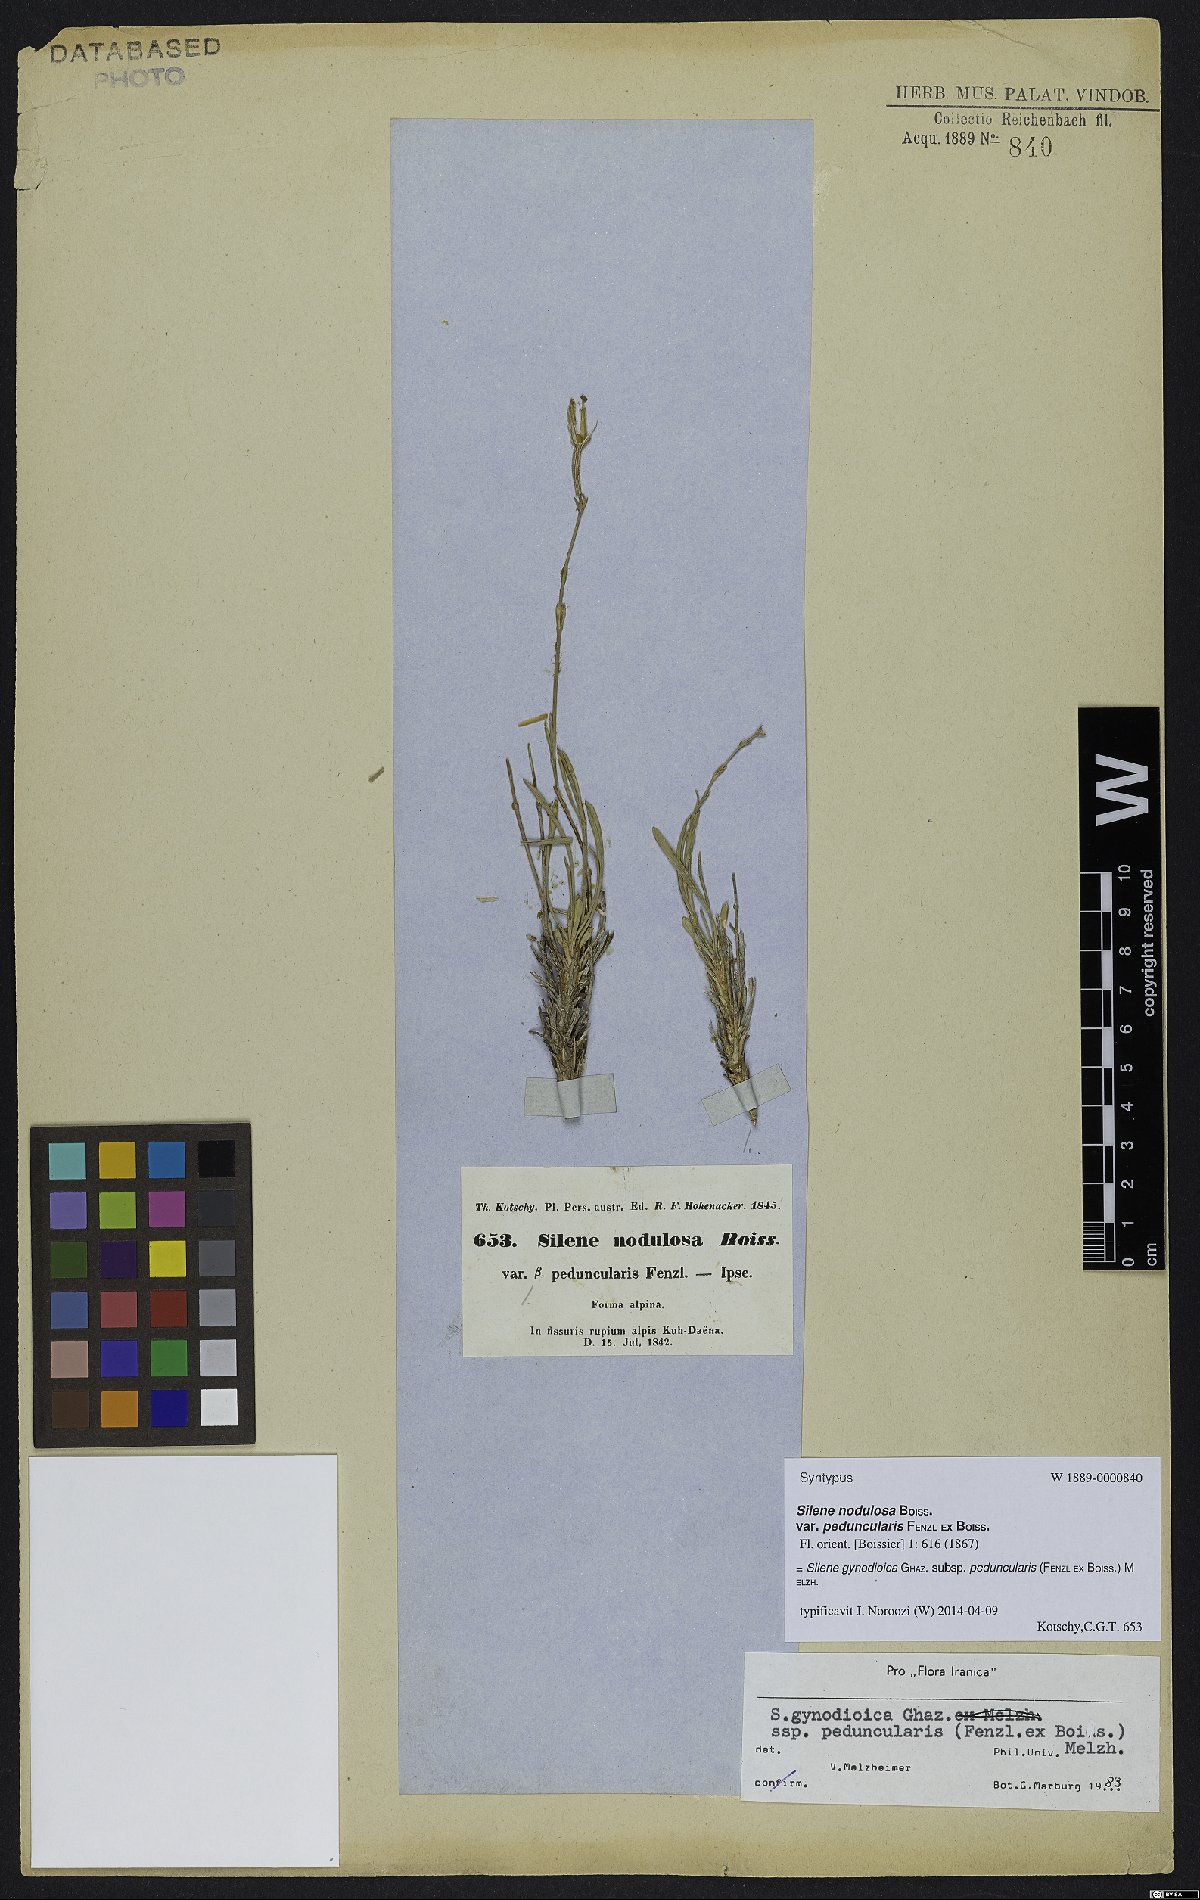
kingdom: Plantae
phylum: Tracheophyta
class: Magnoliopsida
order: Caryophyllales
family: Caryophyllaceae
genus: Silene
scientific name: Silene behboudiana
